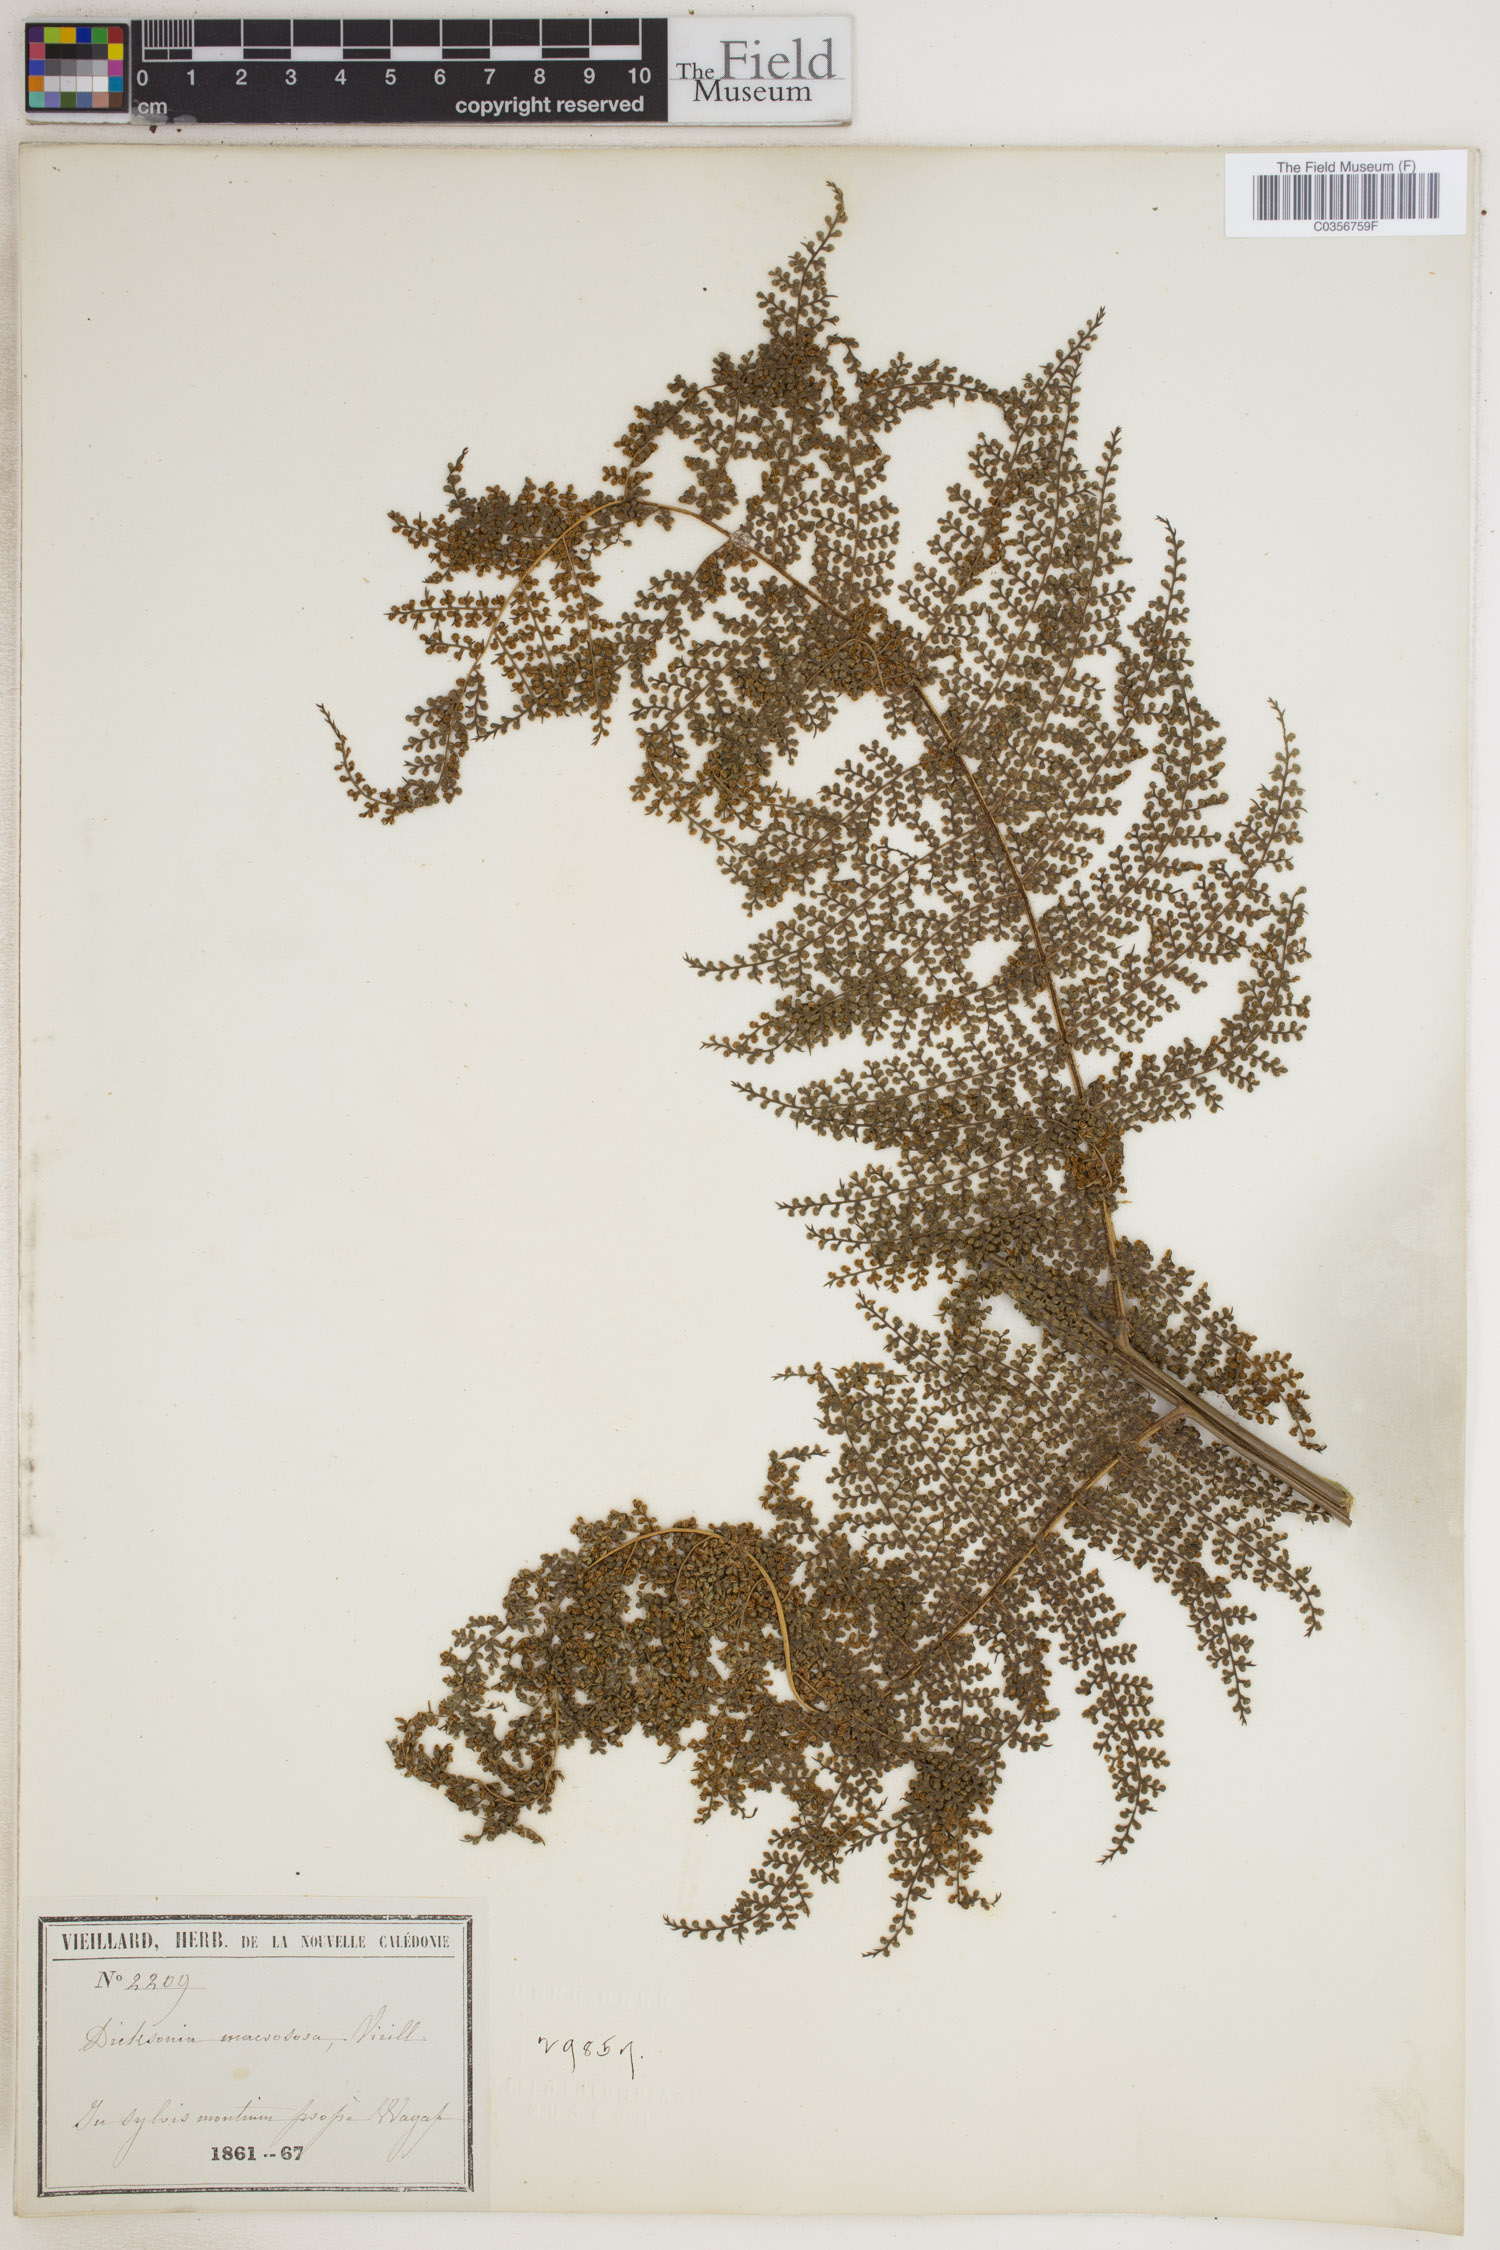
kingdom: Plantae
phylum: Tracheophyta
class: Polypodiopsida
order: Cyatheales
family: Dicksoniaceae
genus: Dicksonia
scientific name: Dicksonia
